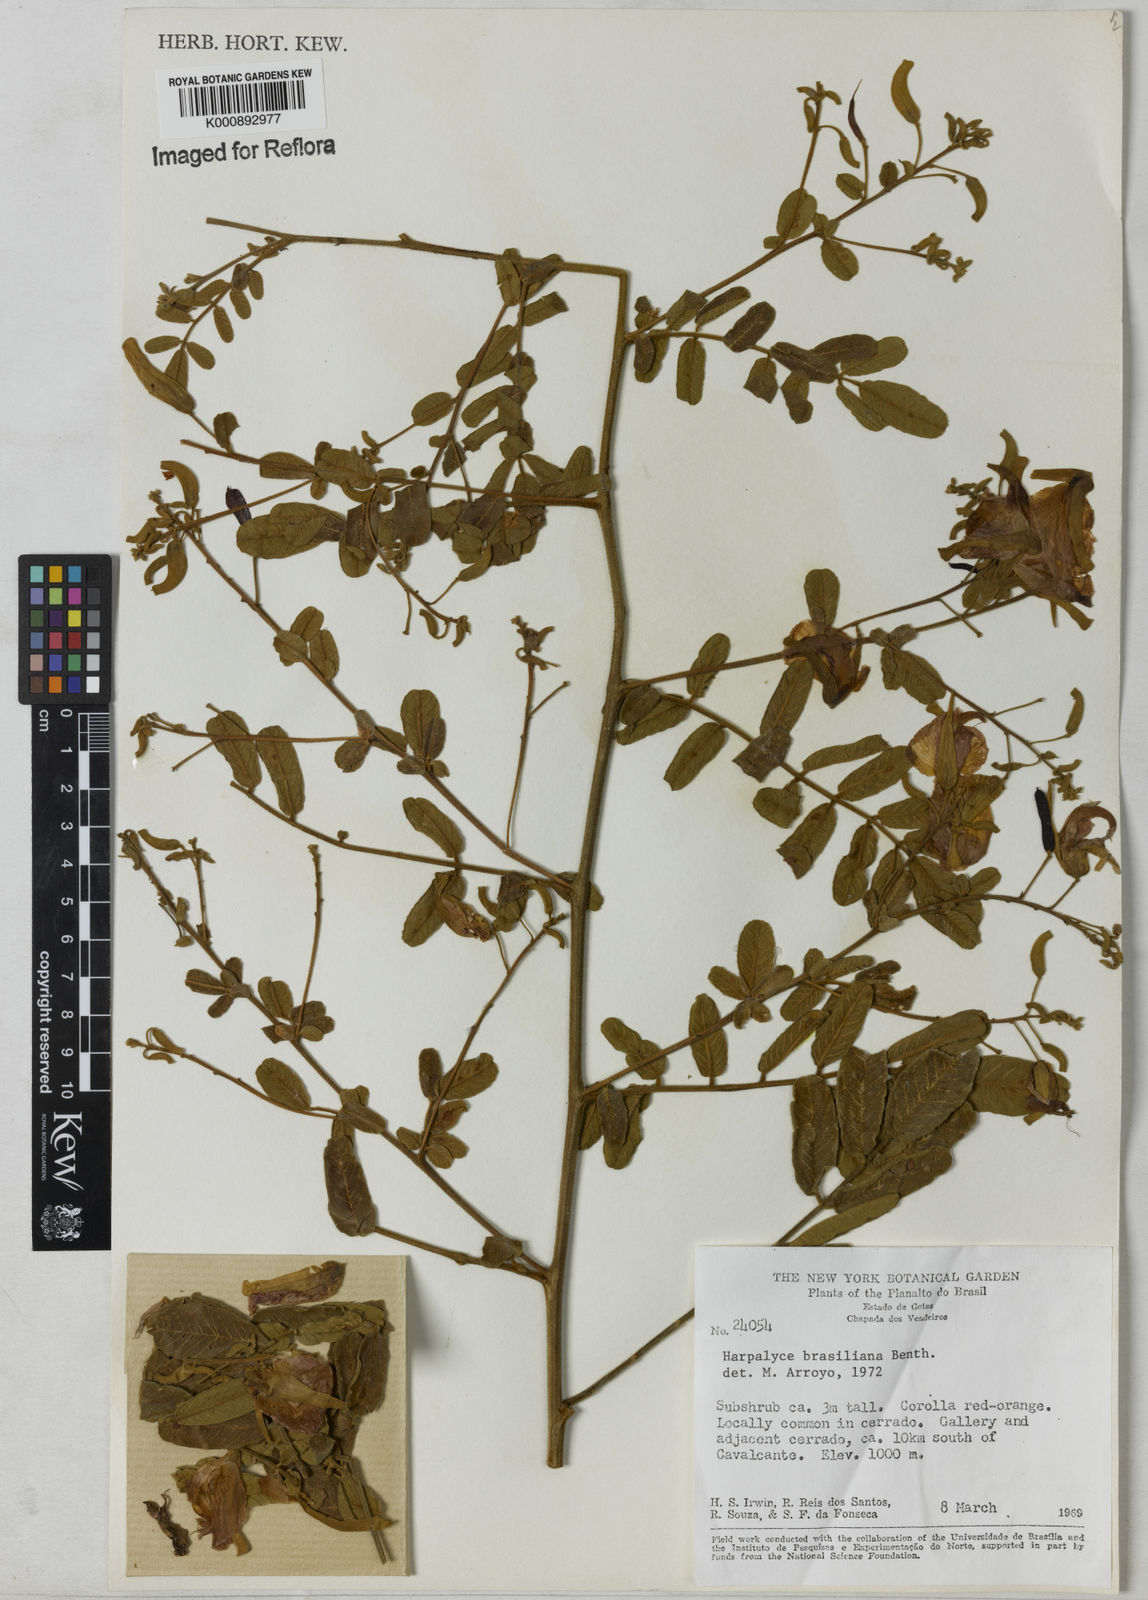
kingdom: Plantae
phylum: Tracheophyta
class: Magnoliopsida
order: Fabales
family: Fabaceae
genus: Harpalyce
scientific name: Harpalyce brasiliana
